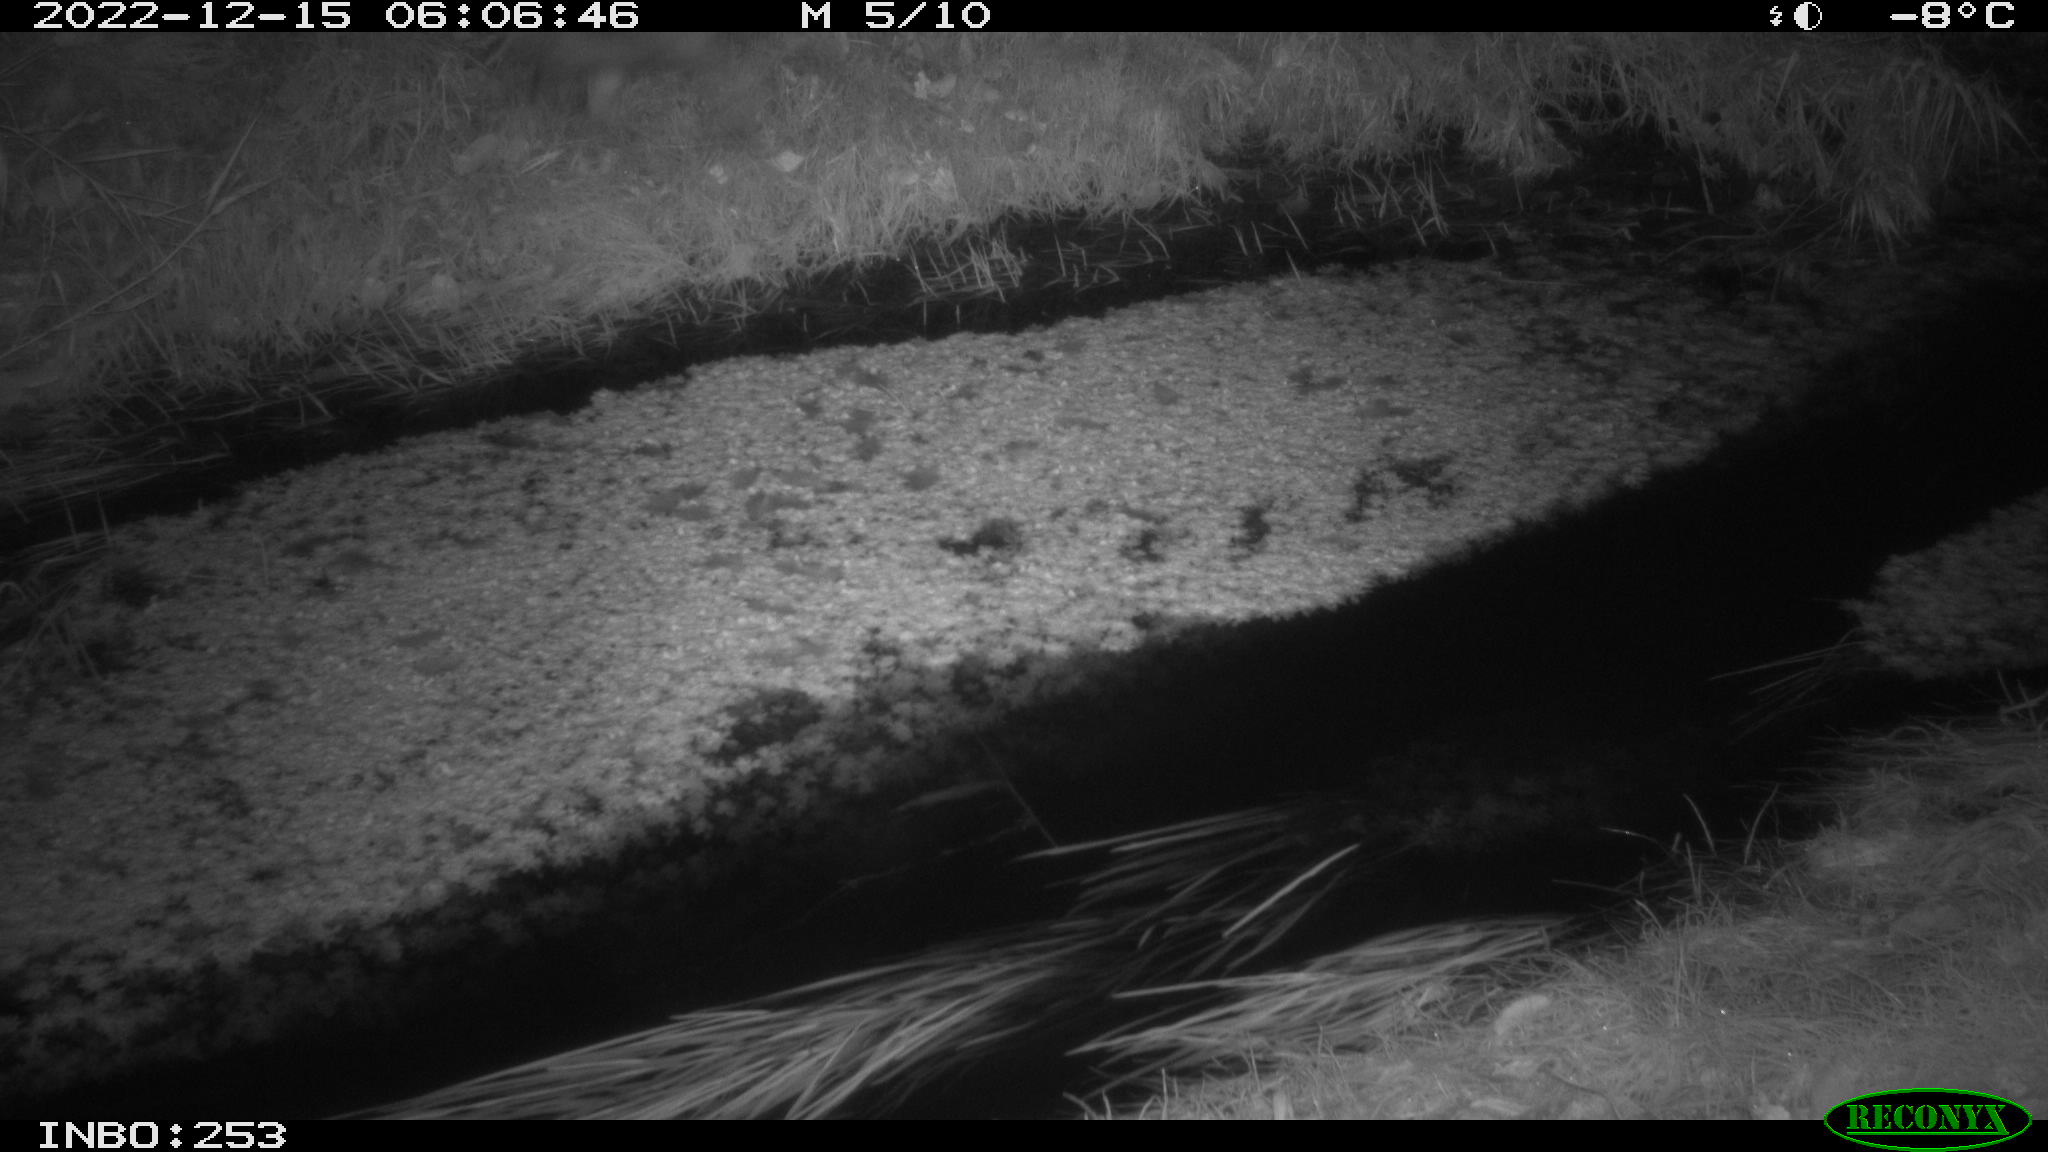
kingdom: Animalia
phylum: Chordata
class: Mammalia
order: Carnivora
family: Canidae
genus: Vulpes
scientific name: Vulpes vulpes
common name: Red fox
